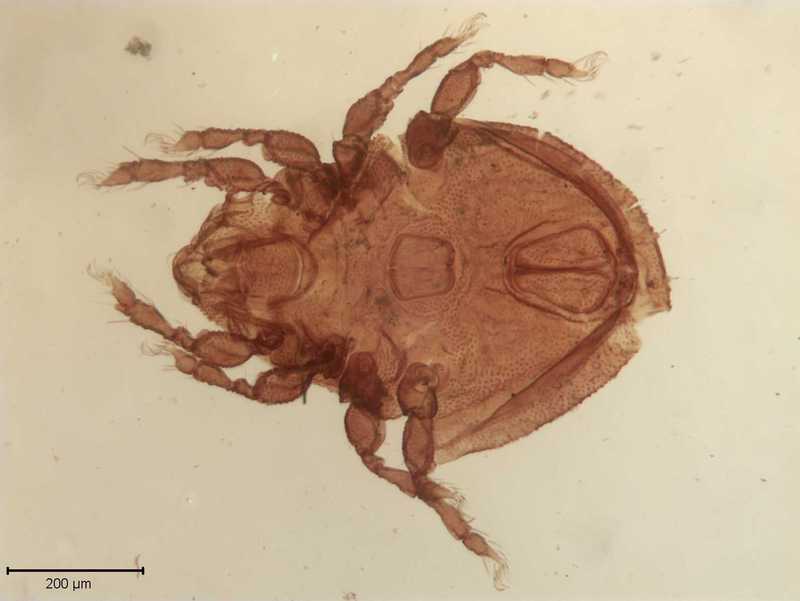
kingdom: Animalia
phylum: Arthropoda
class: Arachnida
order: Sarcoptiformes
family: Scutoverticidae
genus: Scutovertex
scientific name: Scutovertex minutus
